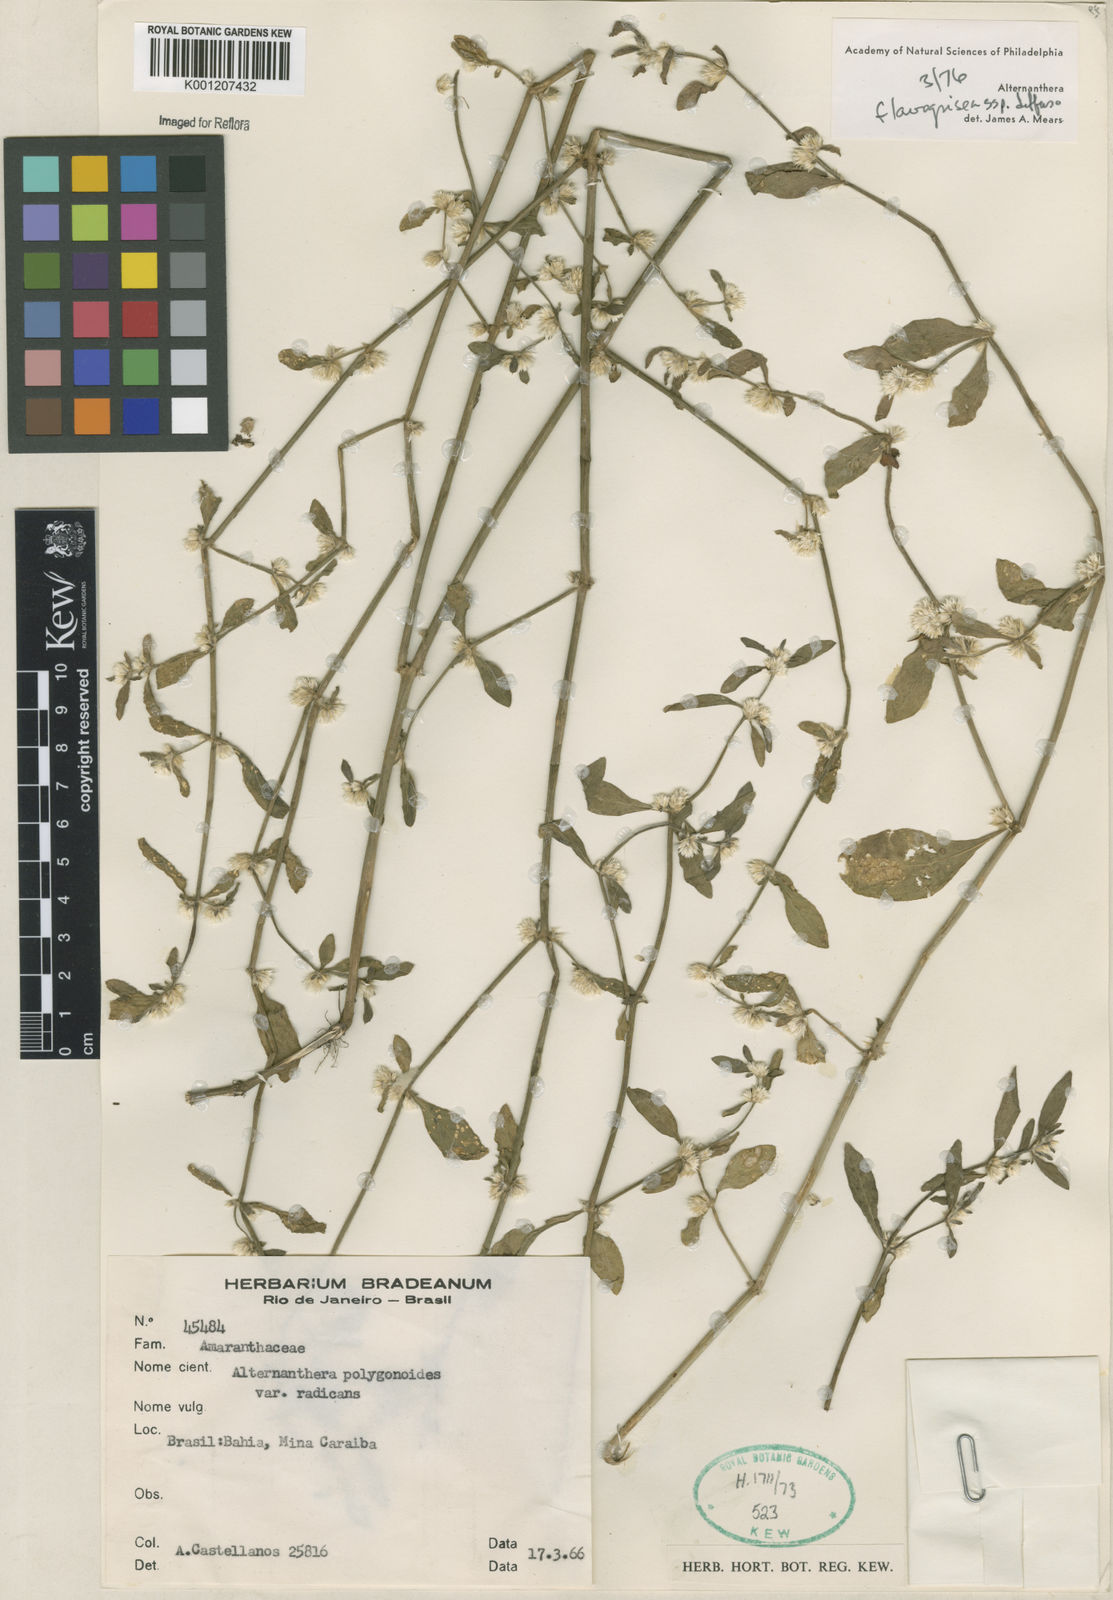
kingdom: Plantae
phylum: Tracheophyta
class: Magnoliopsida
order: Caryophyllales
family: Amaranthaceae
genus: Alternanthera
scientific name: Alternanthera halimifolia
